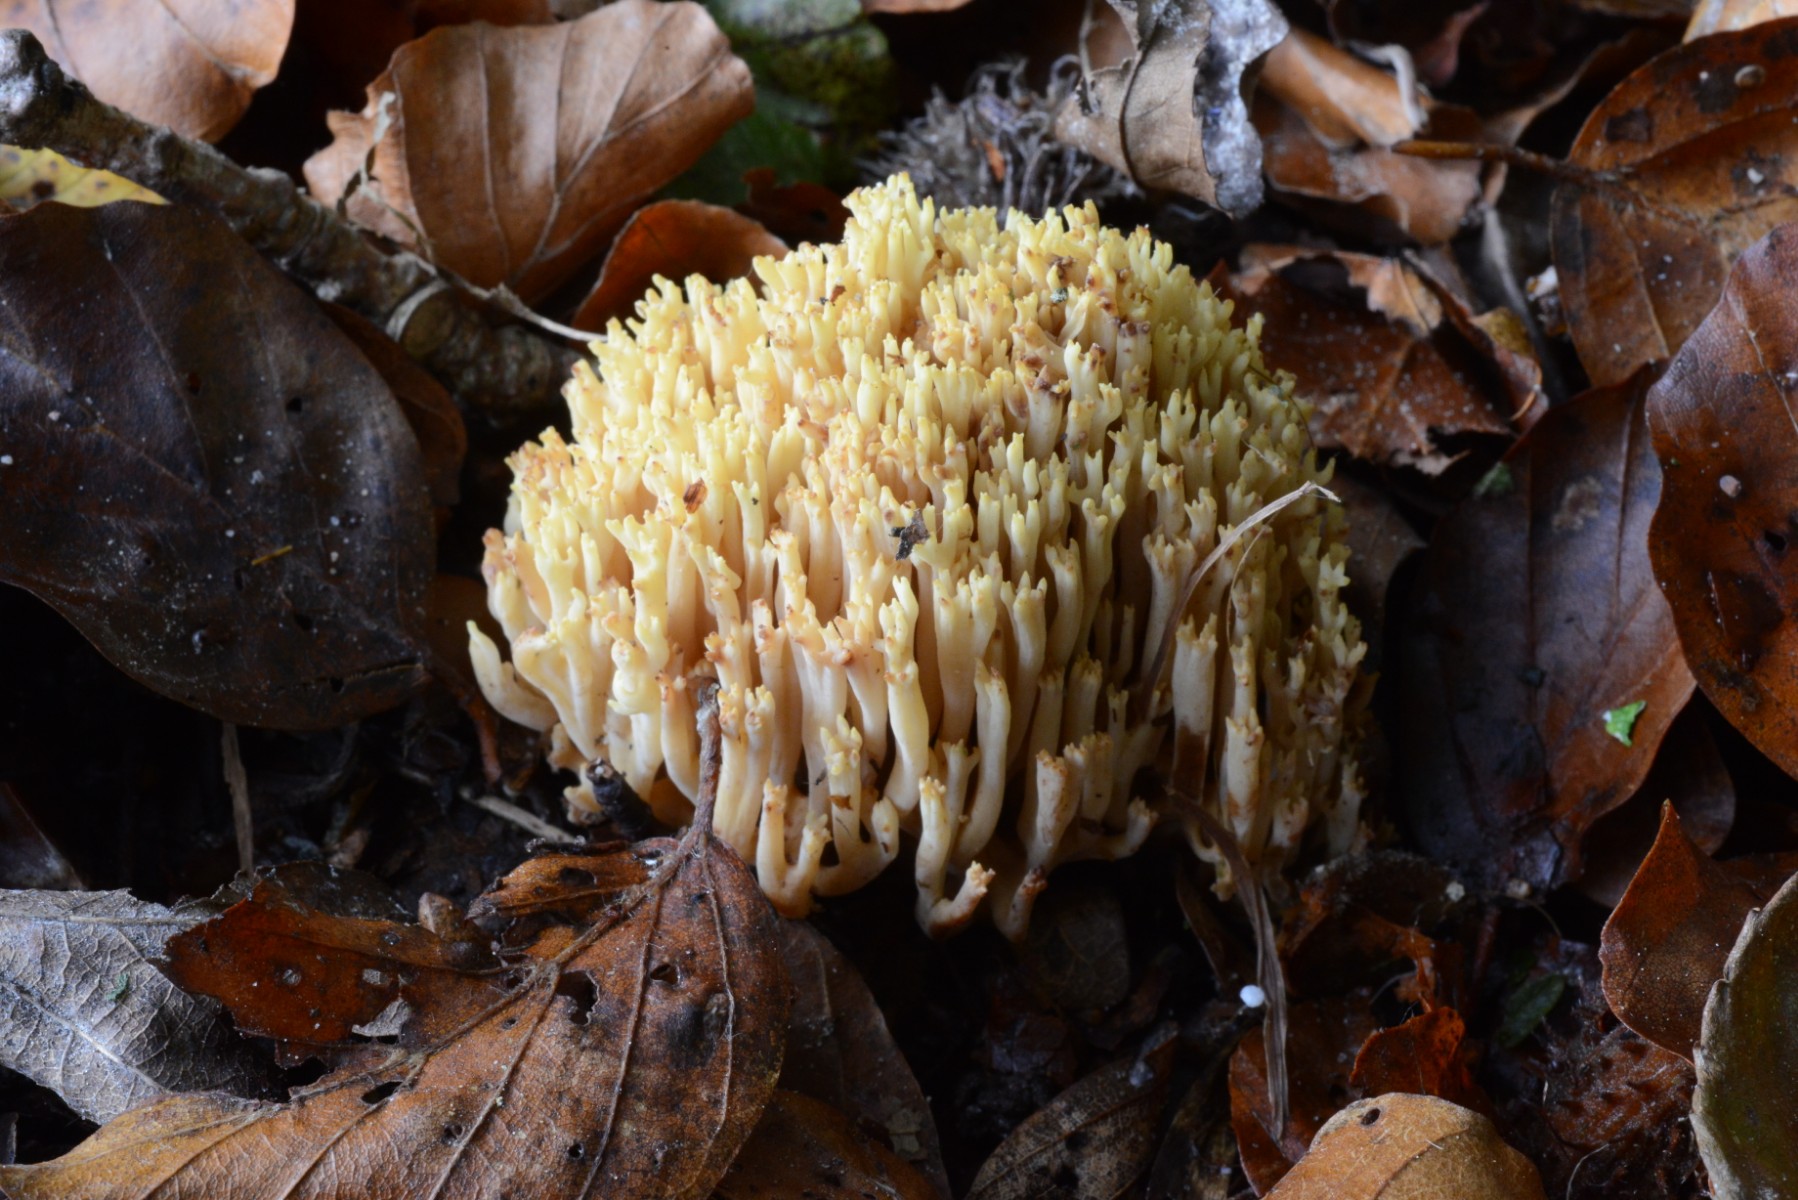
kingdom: Fungi
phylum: Basidiomycota
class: Agaricomycetes
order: Gomphales
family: Gomphaceae
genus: Ramaria
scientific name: Ramaria stricta
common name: rank koralsvamp
